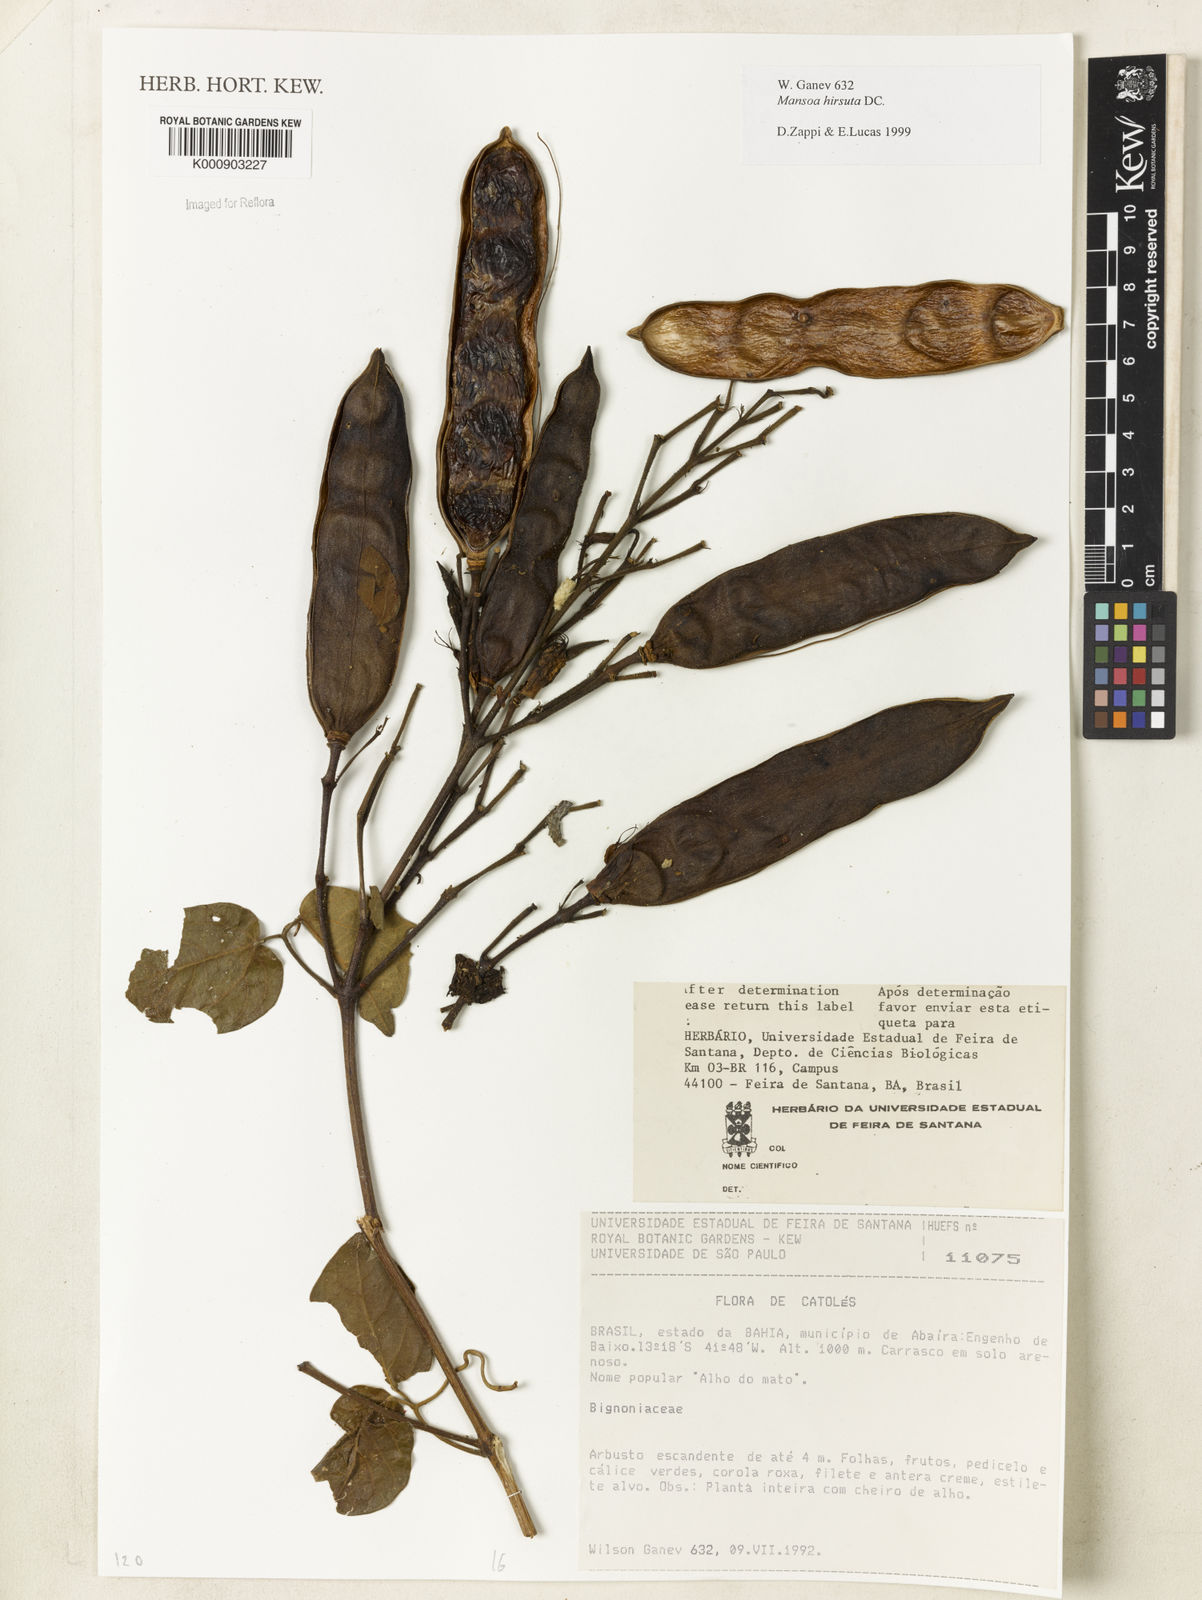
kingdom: Plantae
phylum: Tracheophyta
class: Magnoliopsida
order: Lamiales
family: Bignoniaceae
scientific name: Bignoniaceae
